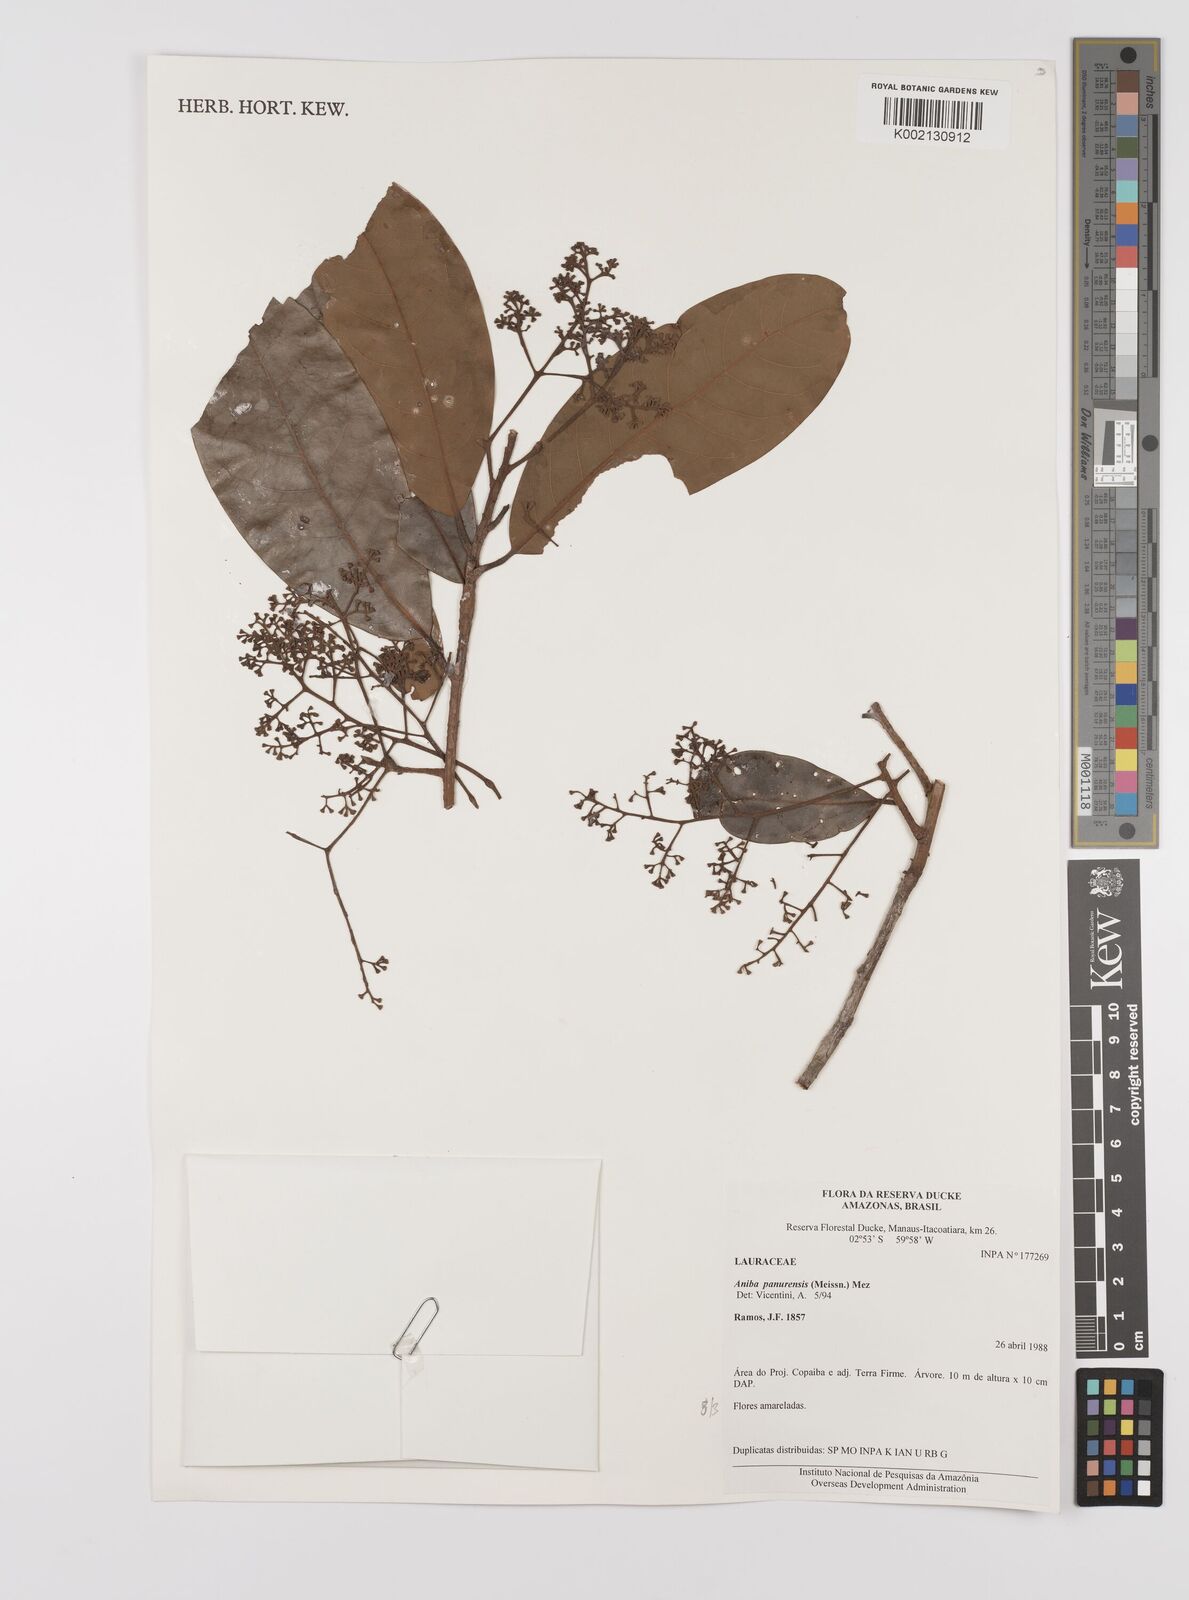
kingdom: Plantae
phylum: Tracheophyta
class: Magnoliopsida
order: Laurales
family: Lauraceae
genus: Aniba
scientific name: Aniba panurensis
